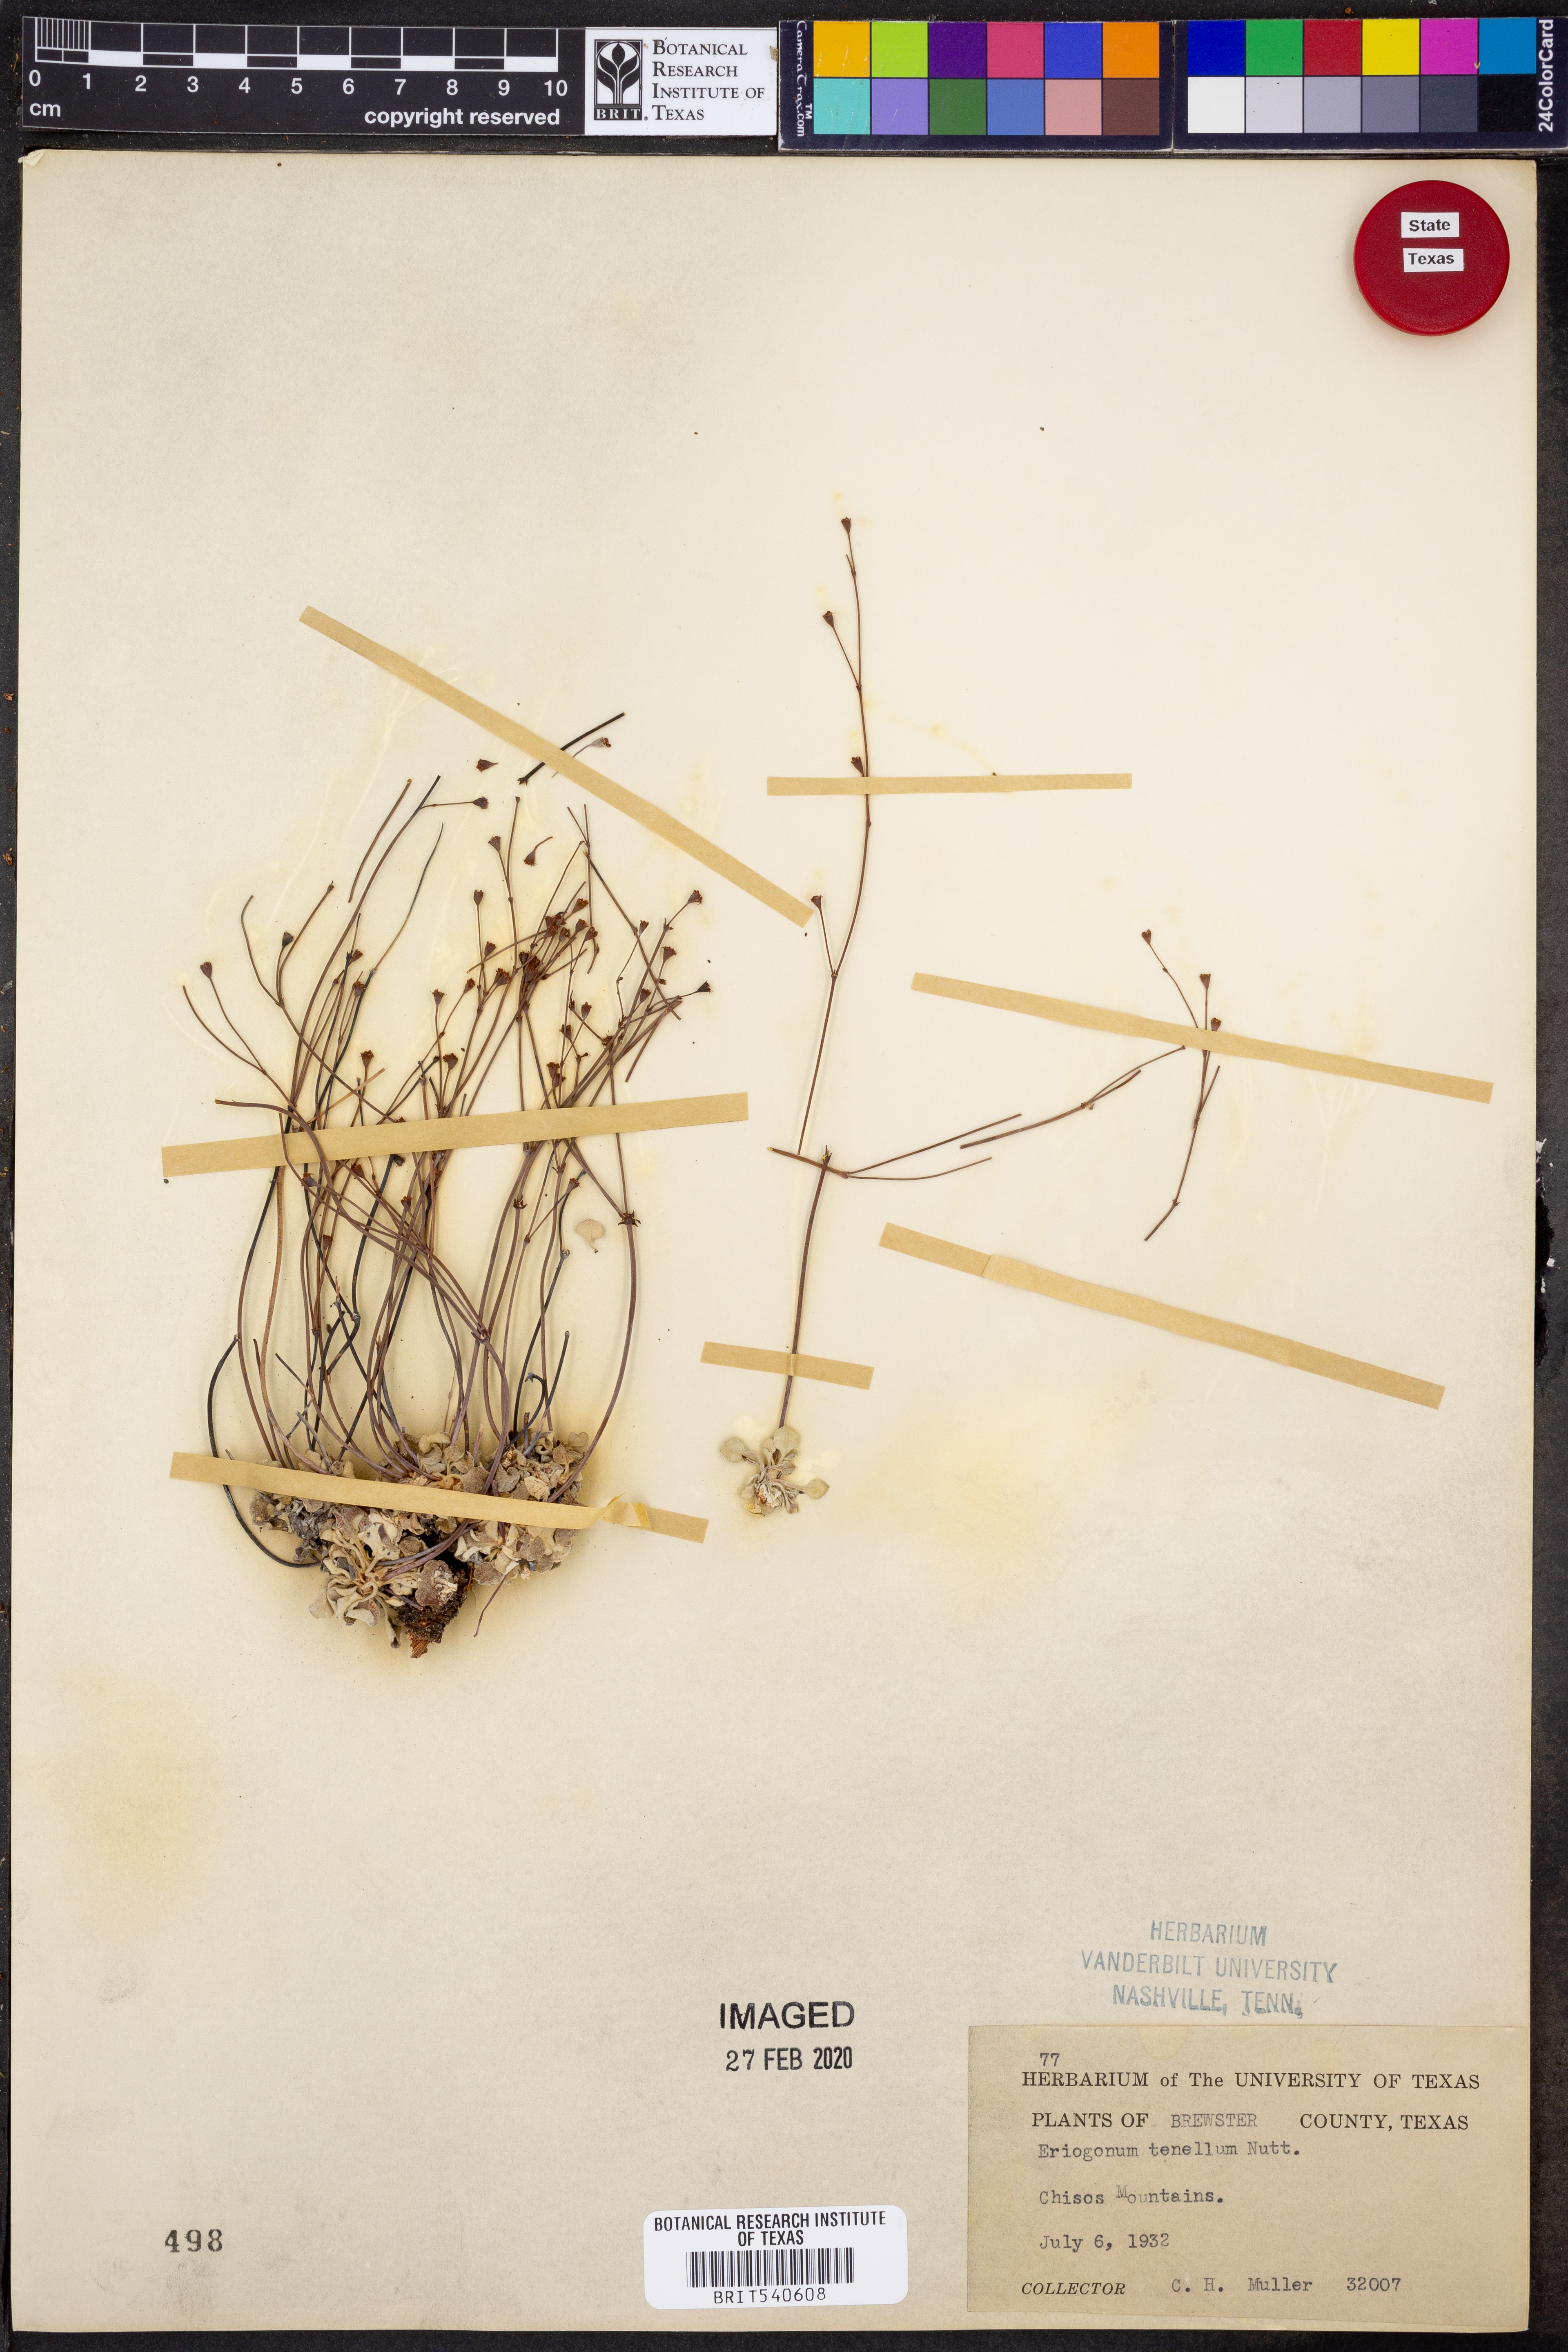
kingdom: Plantae
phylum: Tracheophyta
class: Magnoliopsida
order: Caryophyllales
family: Polygonaceae
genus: Eriogonum
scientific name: Eriogonum tenellum
